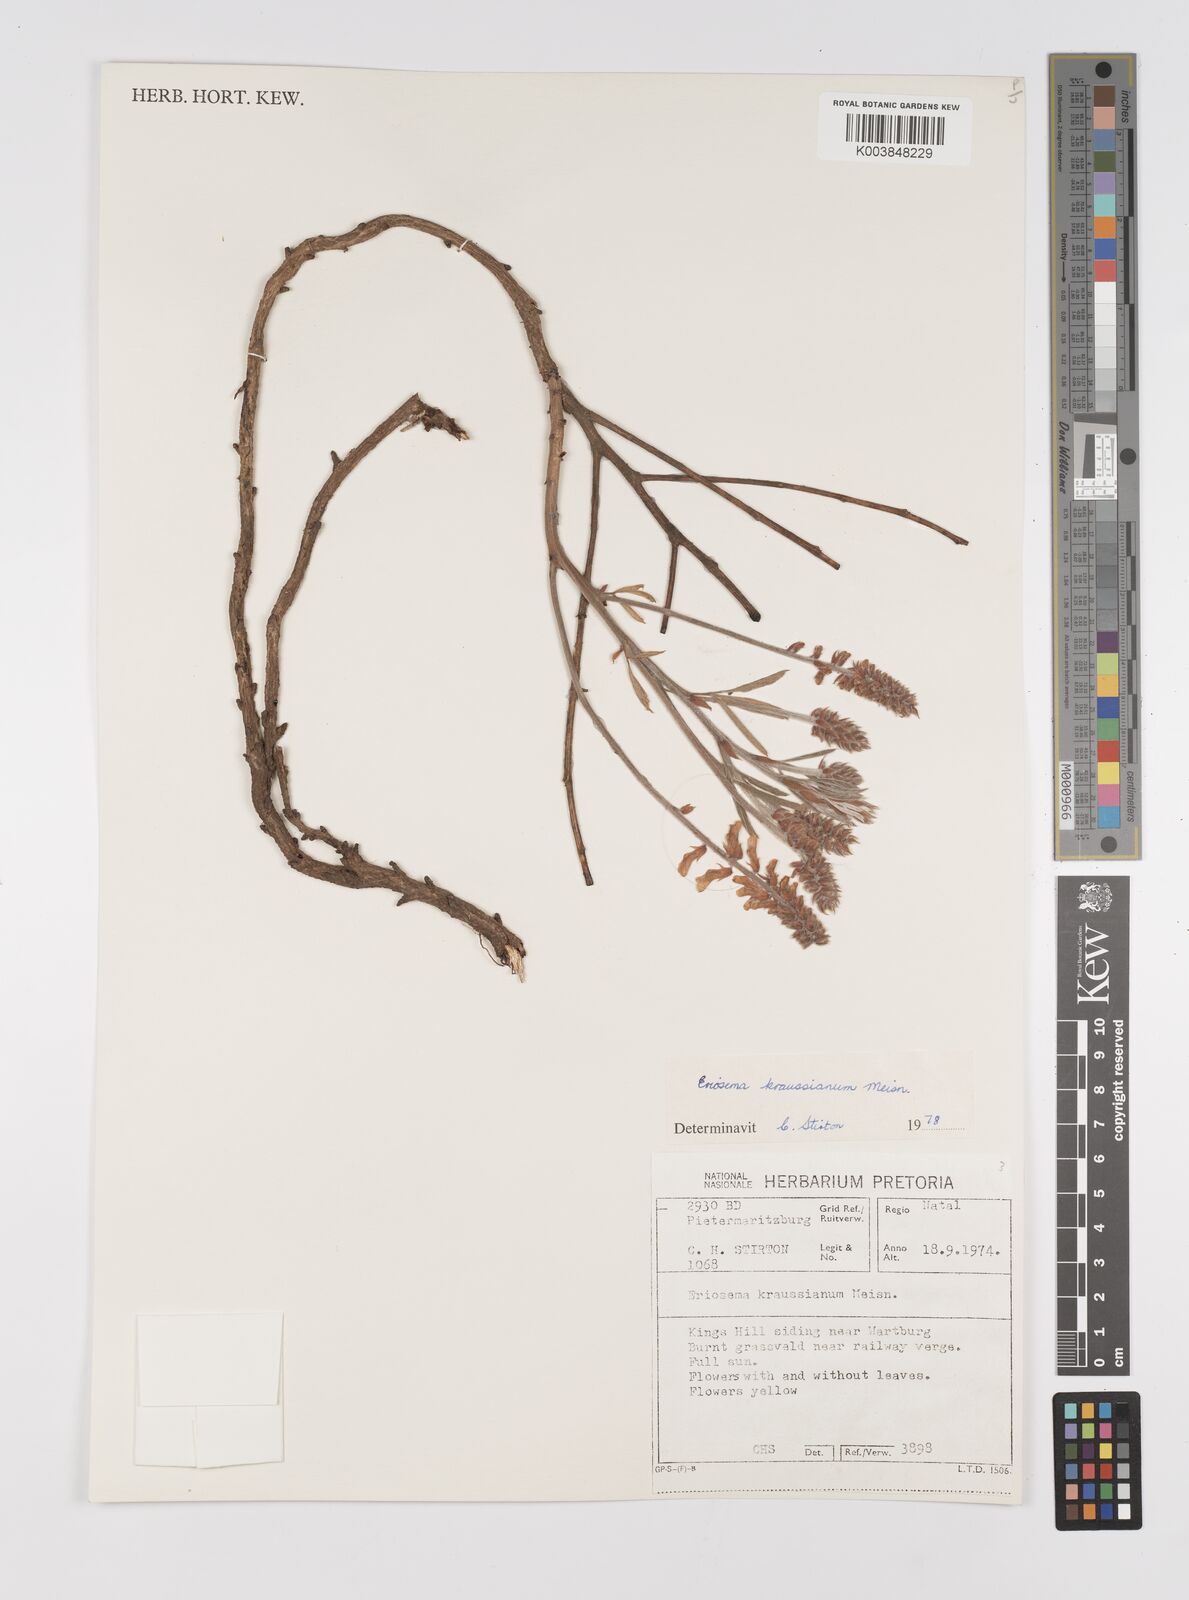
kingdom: Plantae
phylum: Tracheophyta
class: Magnoliopsida
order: Fabales
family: Fabaceae
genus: Eriosema
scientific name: Eriosema kraussianum
